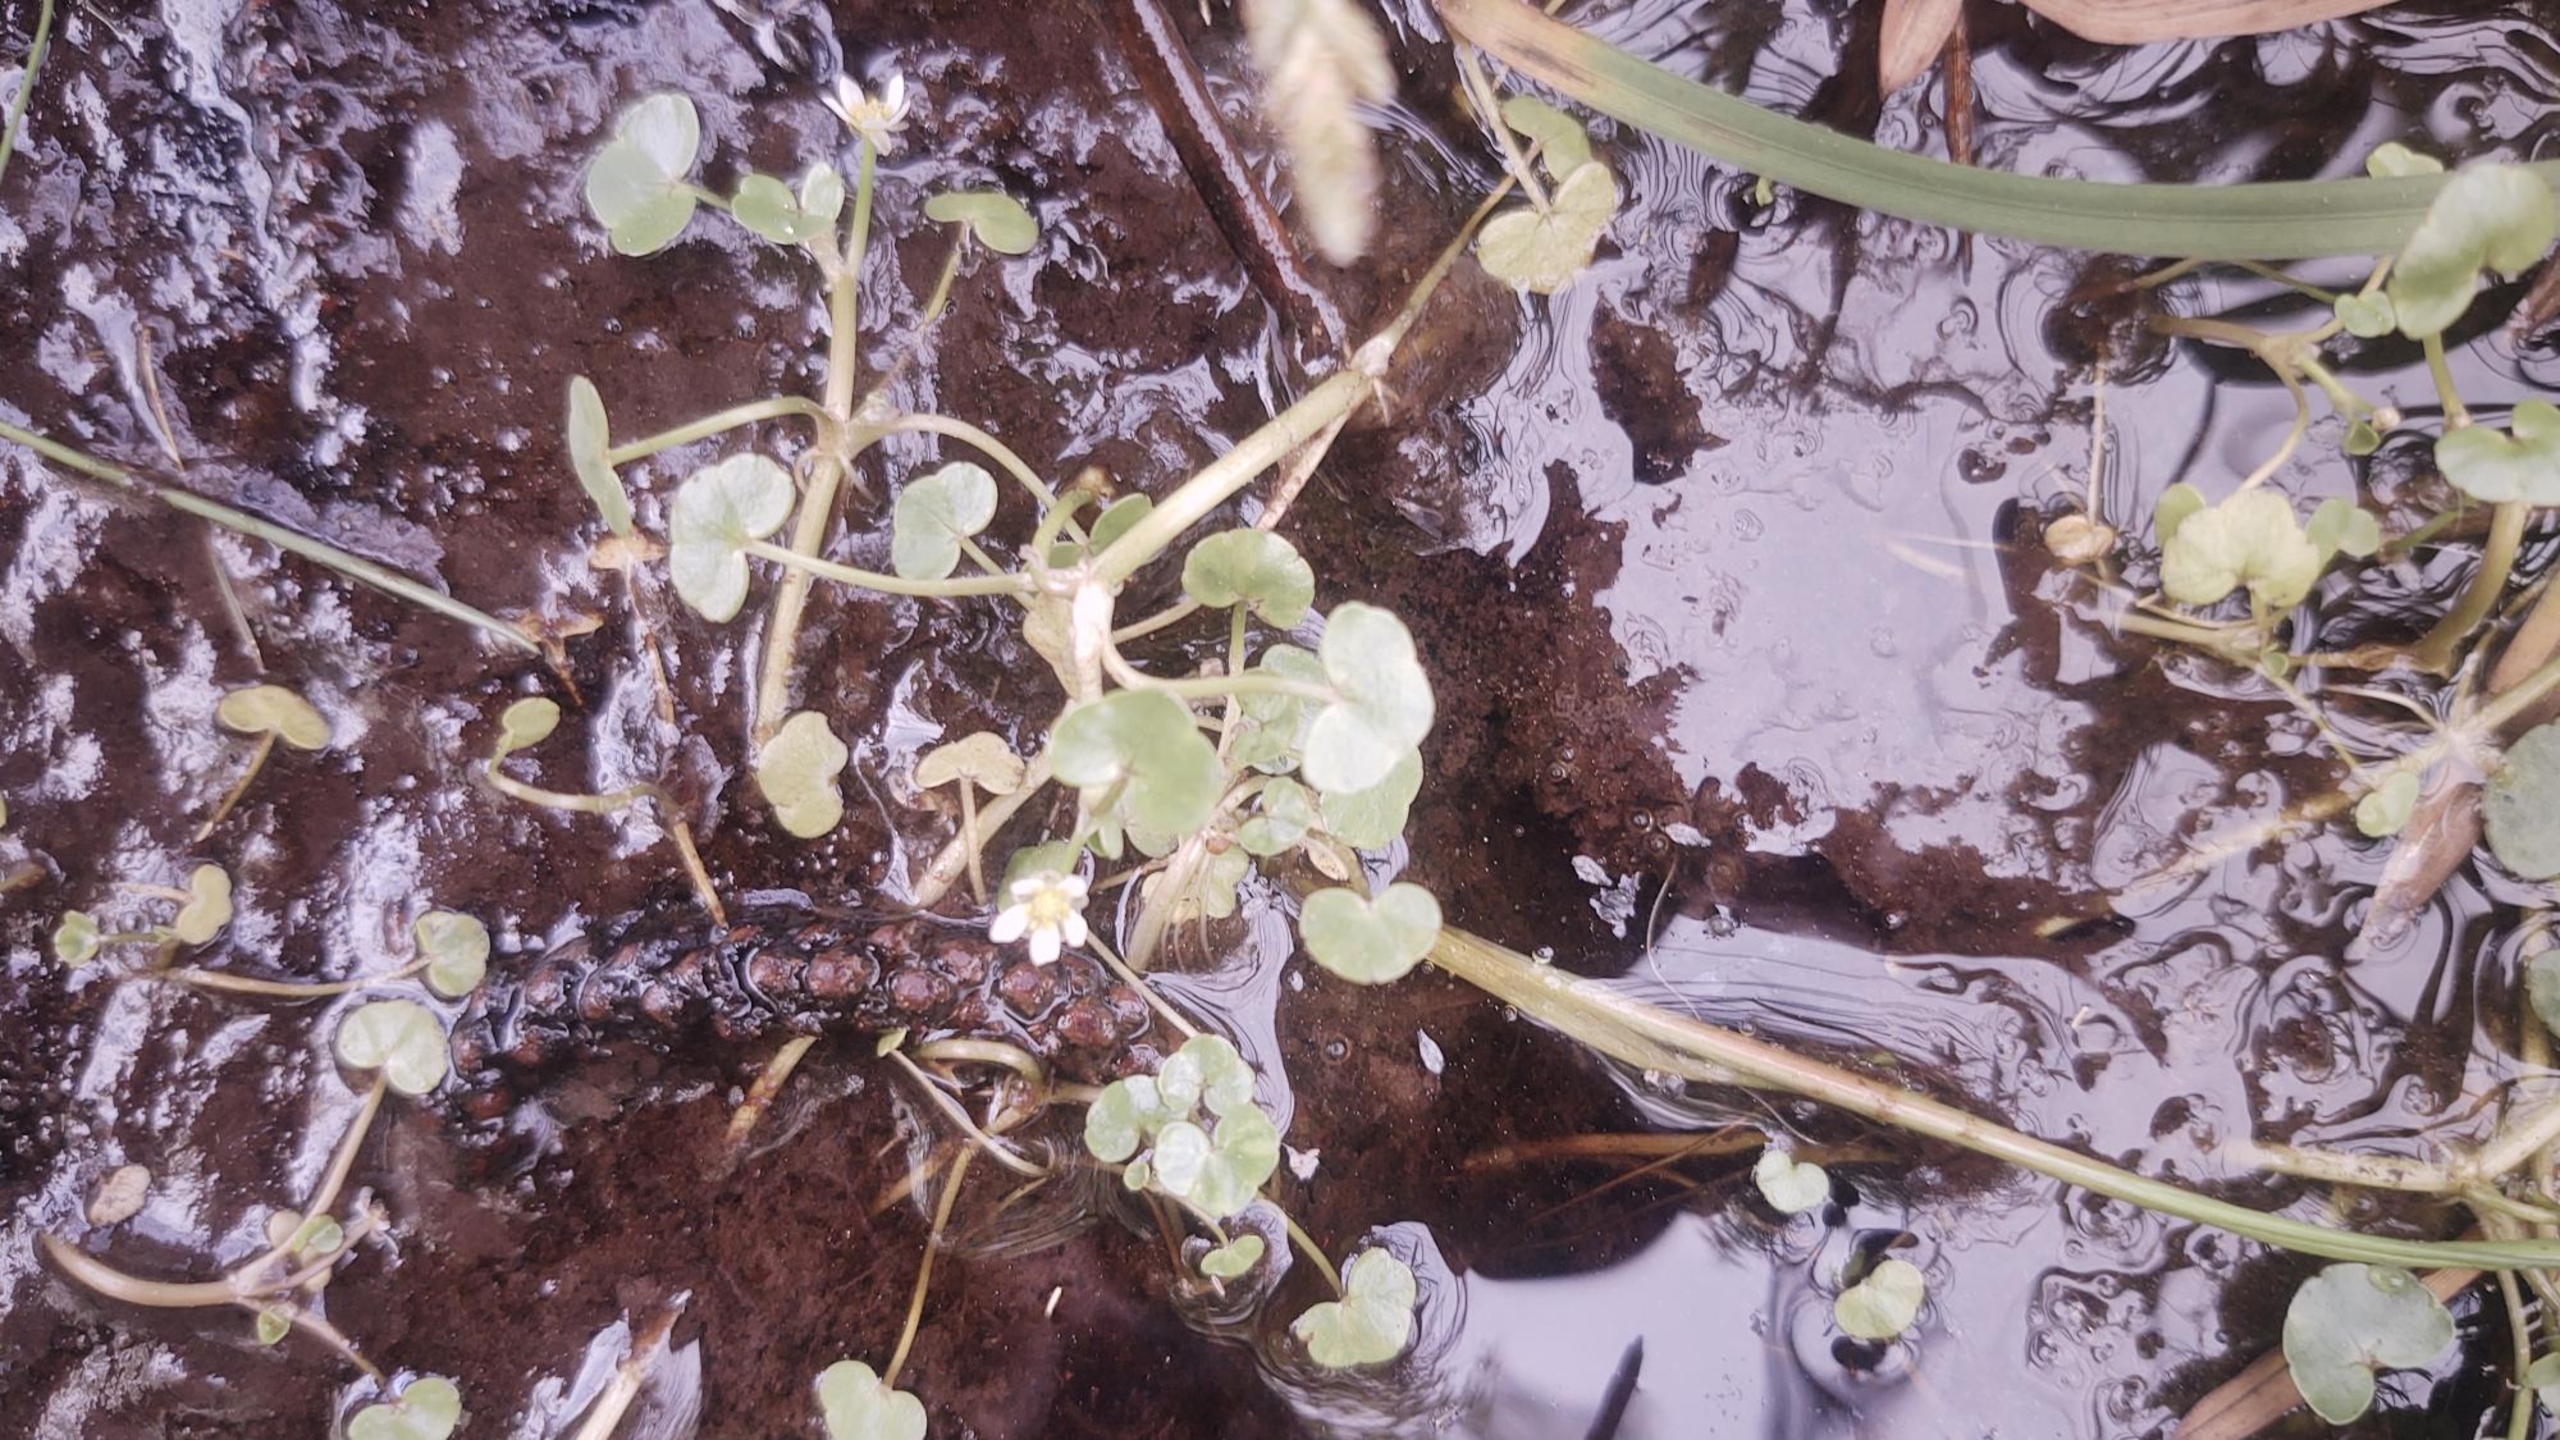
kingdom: Plantae
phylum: Tracheophyta
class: Magnoliopsida
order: Ranunculales
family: Ranunculaceae
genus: Ranunculus
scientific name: Ranunculus hederaceus
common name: Vedbend-vandranunkel
